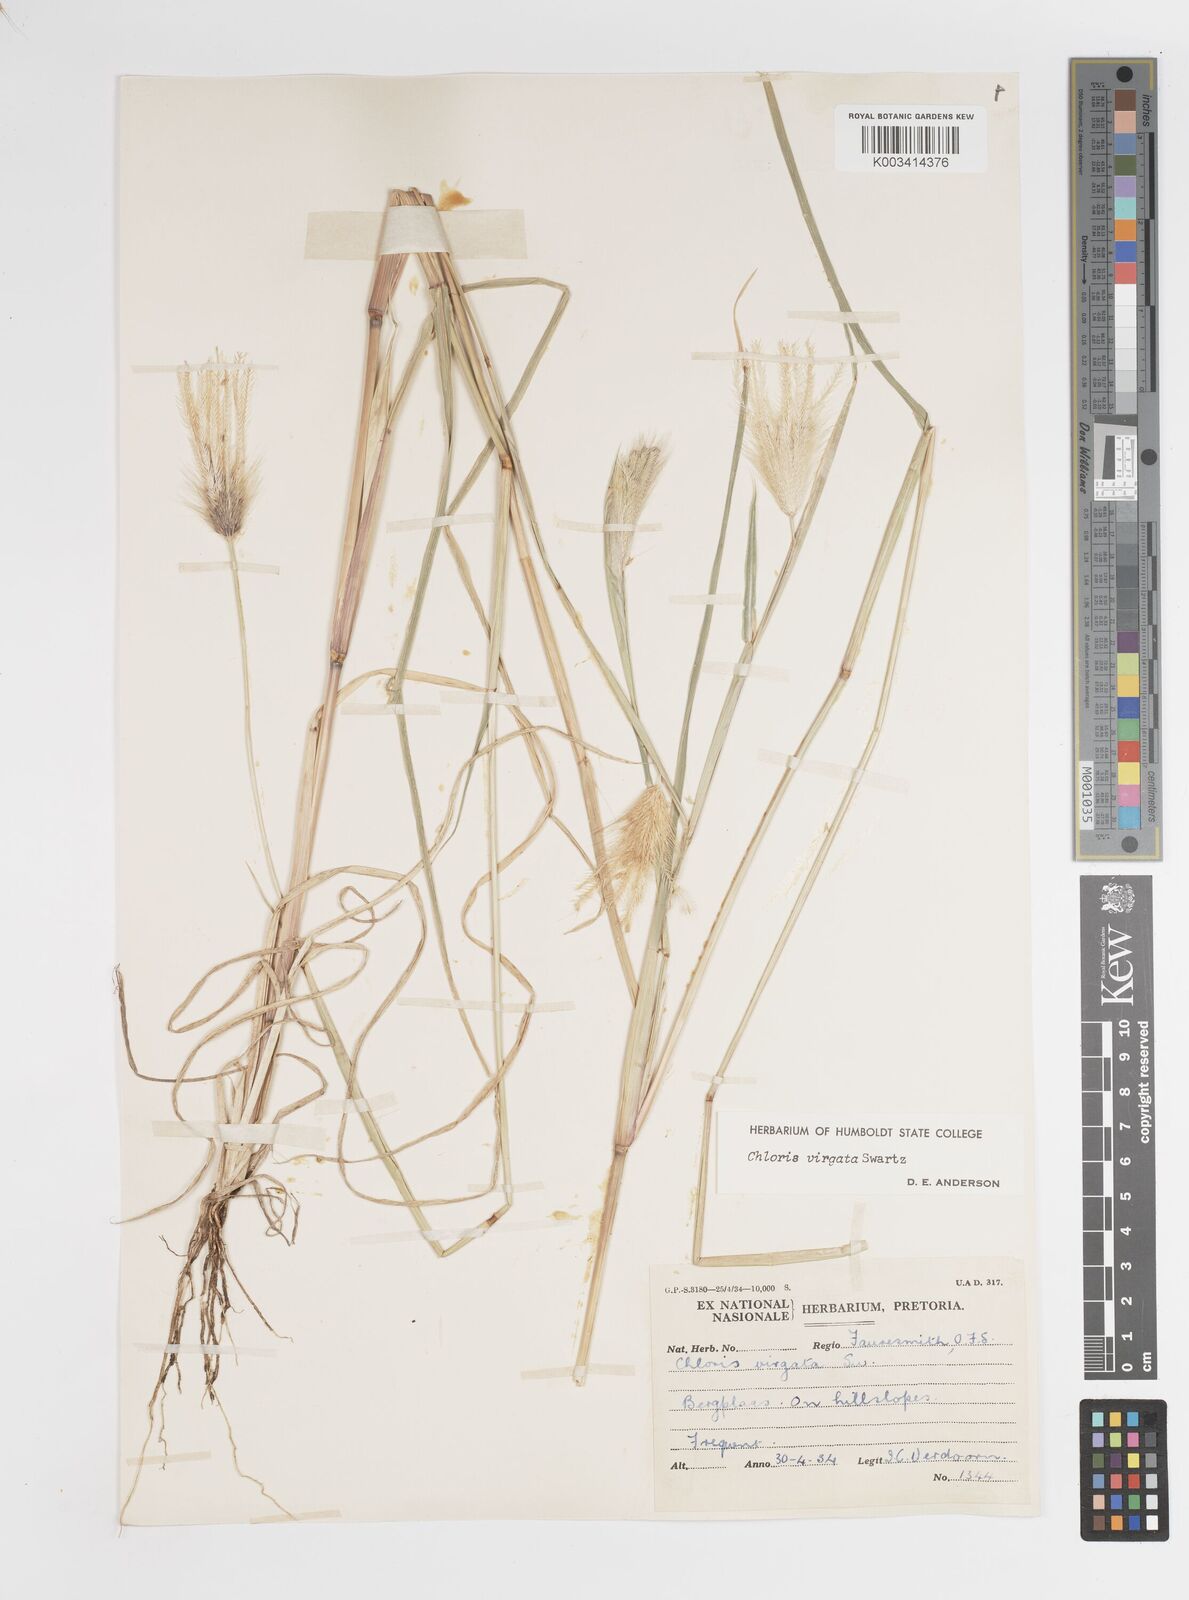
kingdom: Plantae
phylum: Tracheophyta
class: Liliopsida
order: Poales
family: Poaceae
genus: Chloris
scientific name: Chloris virgata
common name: Feathery rhodes-grass
